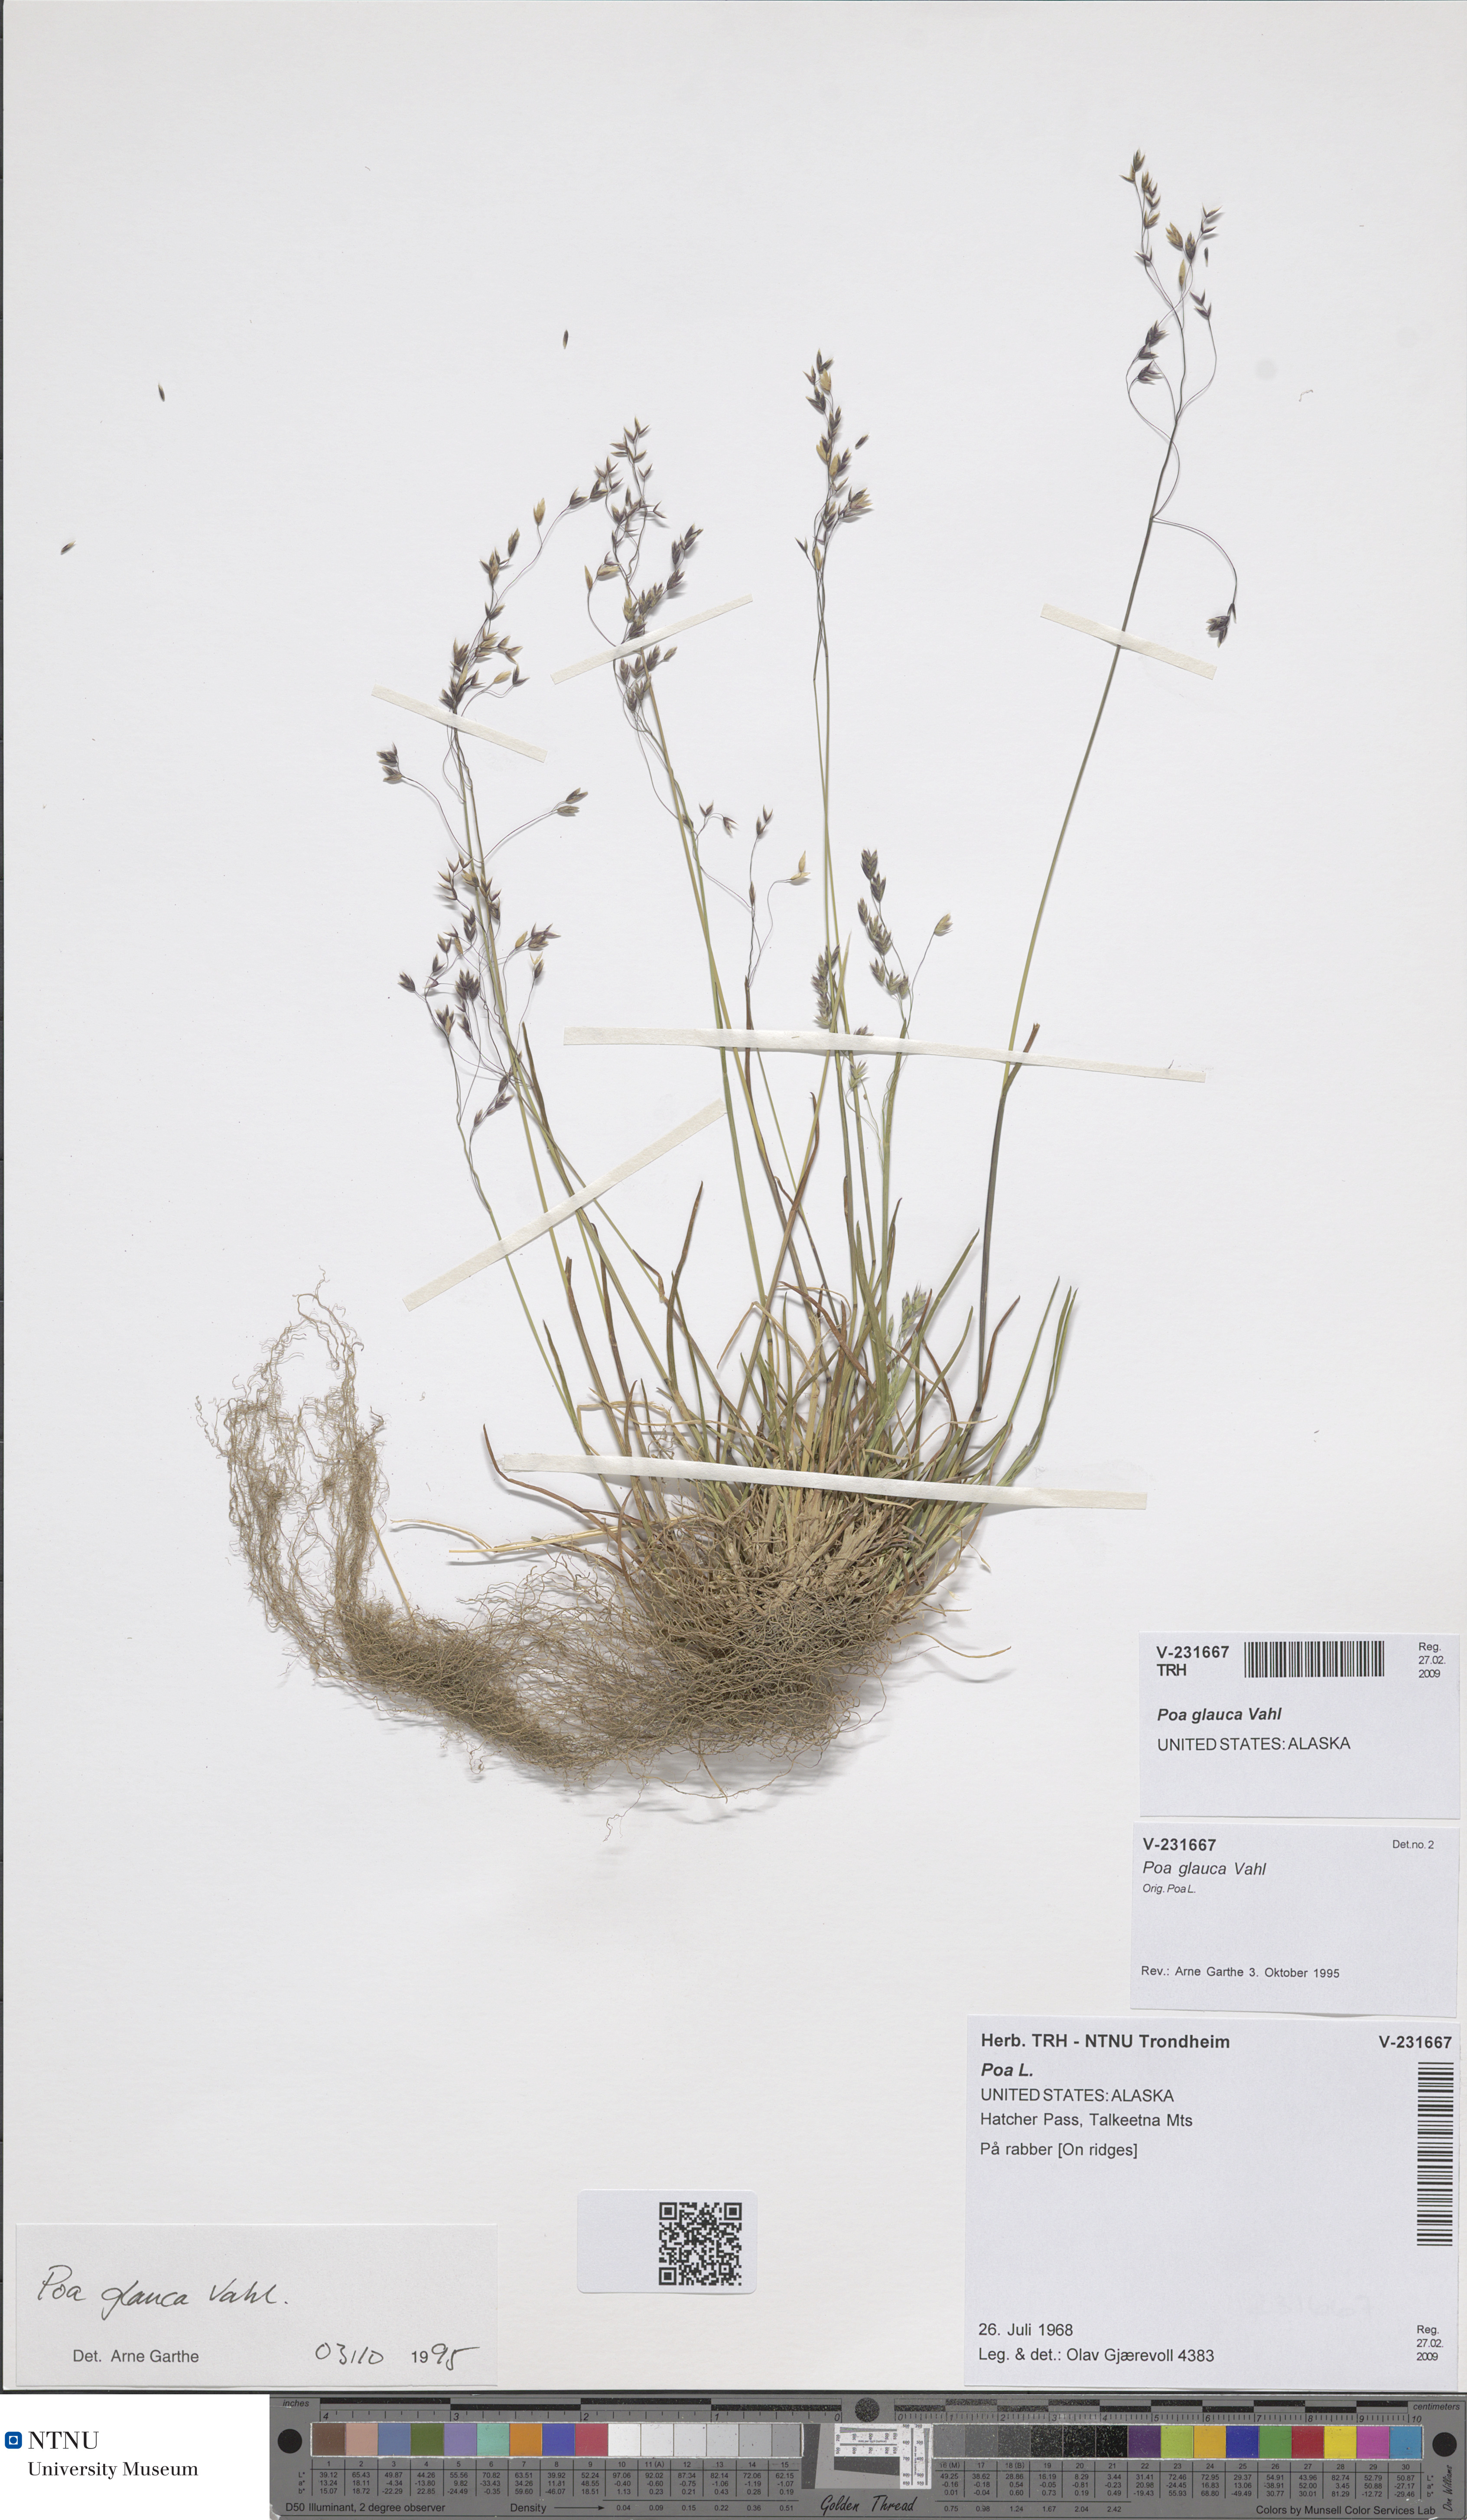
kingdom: Plantae
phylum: Tracheophyta
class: Liliopsida
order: Poales
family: Poaceae
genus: Poa
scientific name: Poa glauca
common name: Glaucous bluegrass
